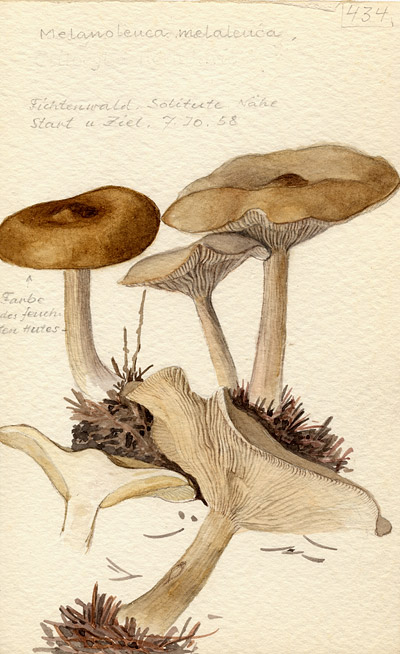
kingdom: Fungi
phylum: Basidiomycota
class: Agaricomycetes
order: Agaricales
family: Tricholomataceae
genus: Melanoleuca
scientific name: Melanoleuca melaleuca
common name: Bald cavalier
